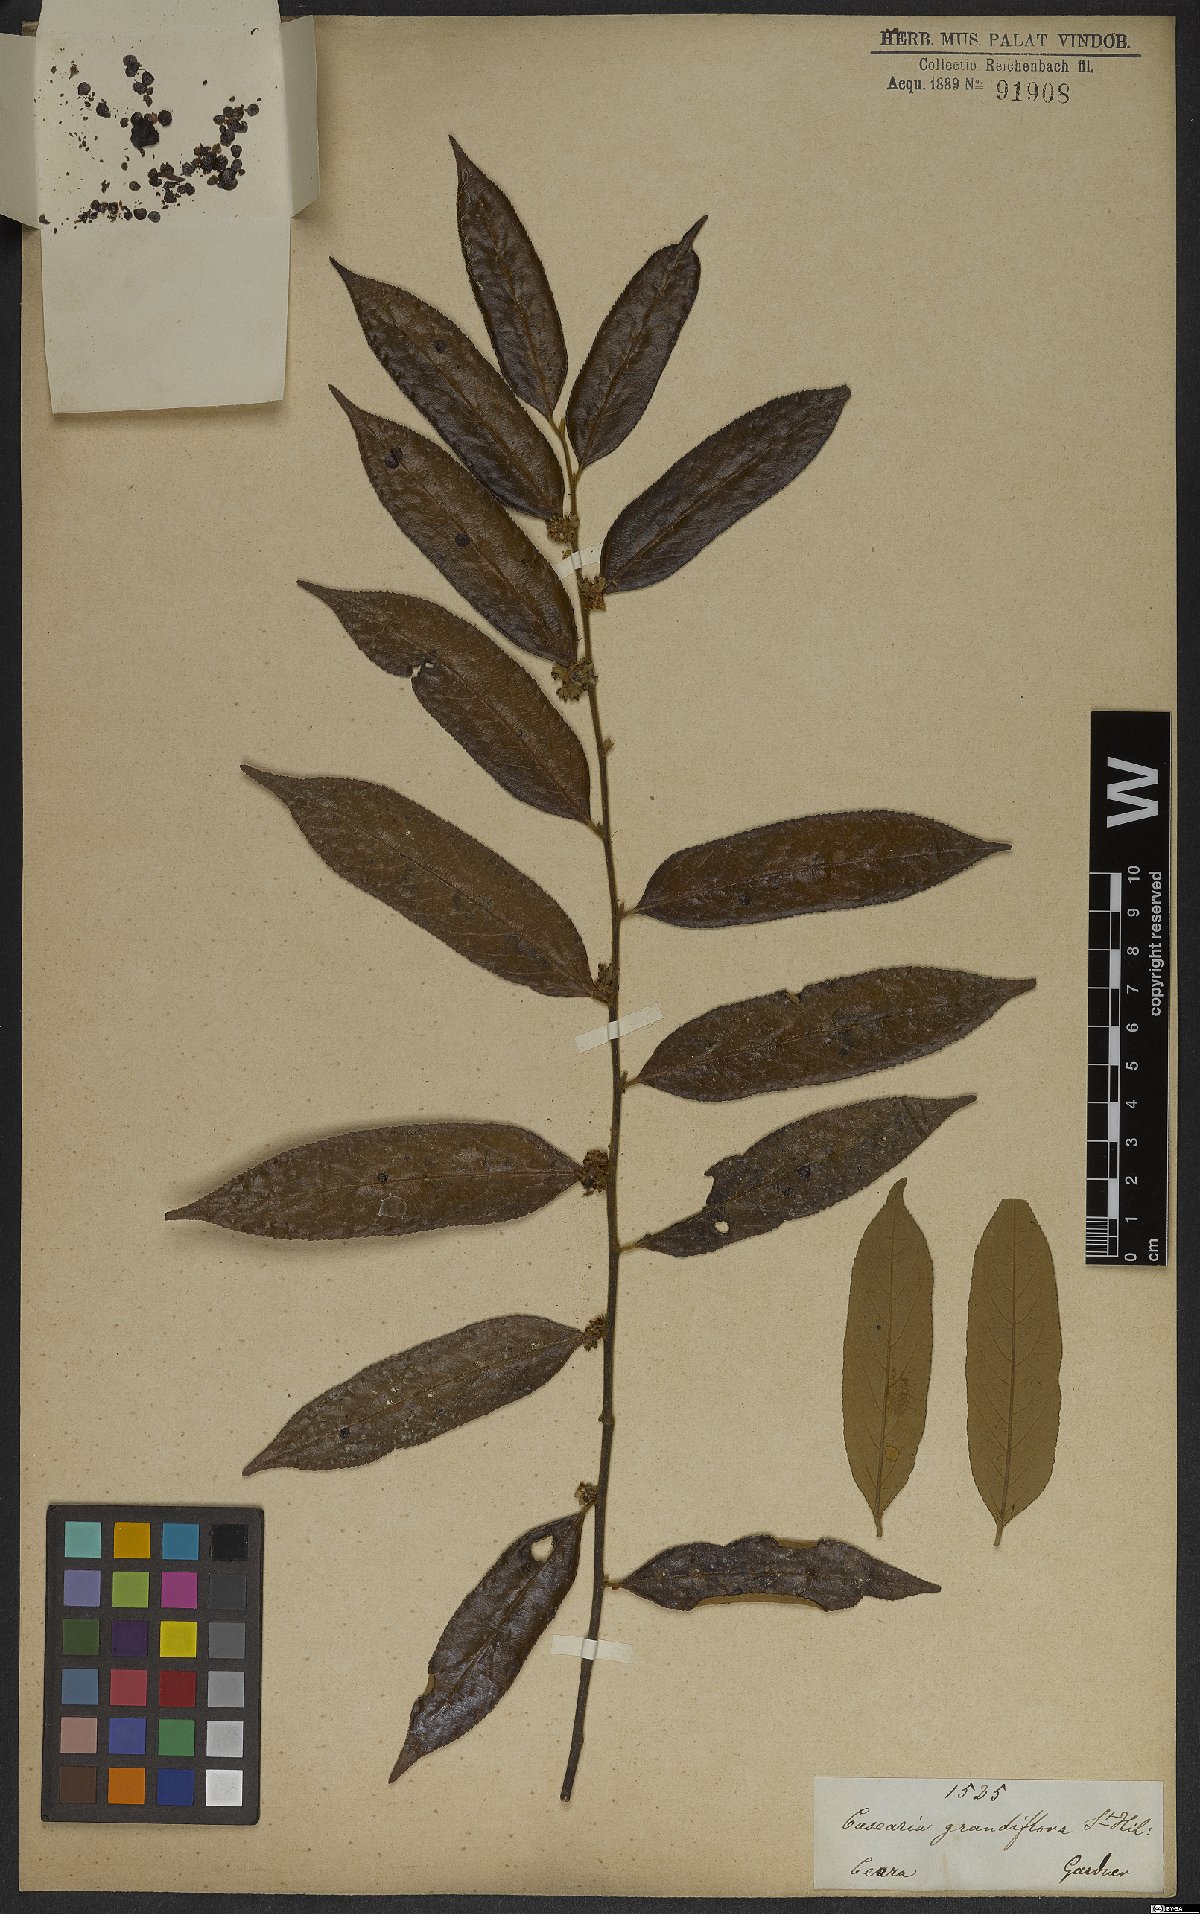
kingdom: Plantae
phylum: Tracheophyta
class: Magnoliopsida
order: Malpighiales
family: Salicaceae
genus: Casearia
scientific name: Casearia grandiflora
